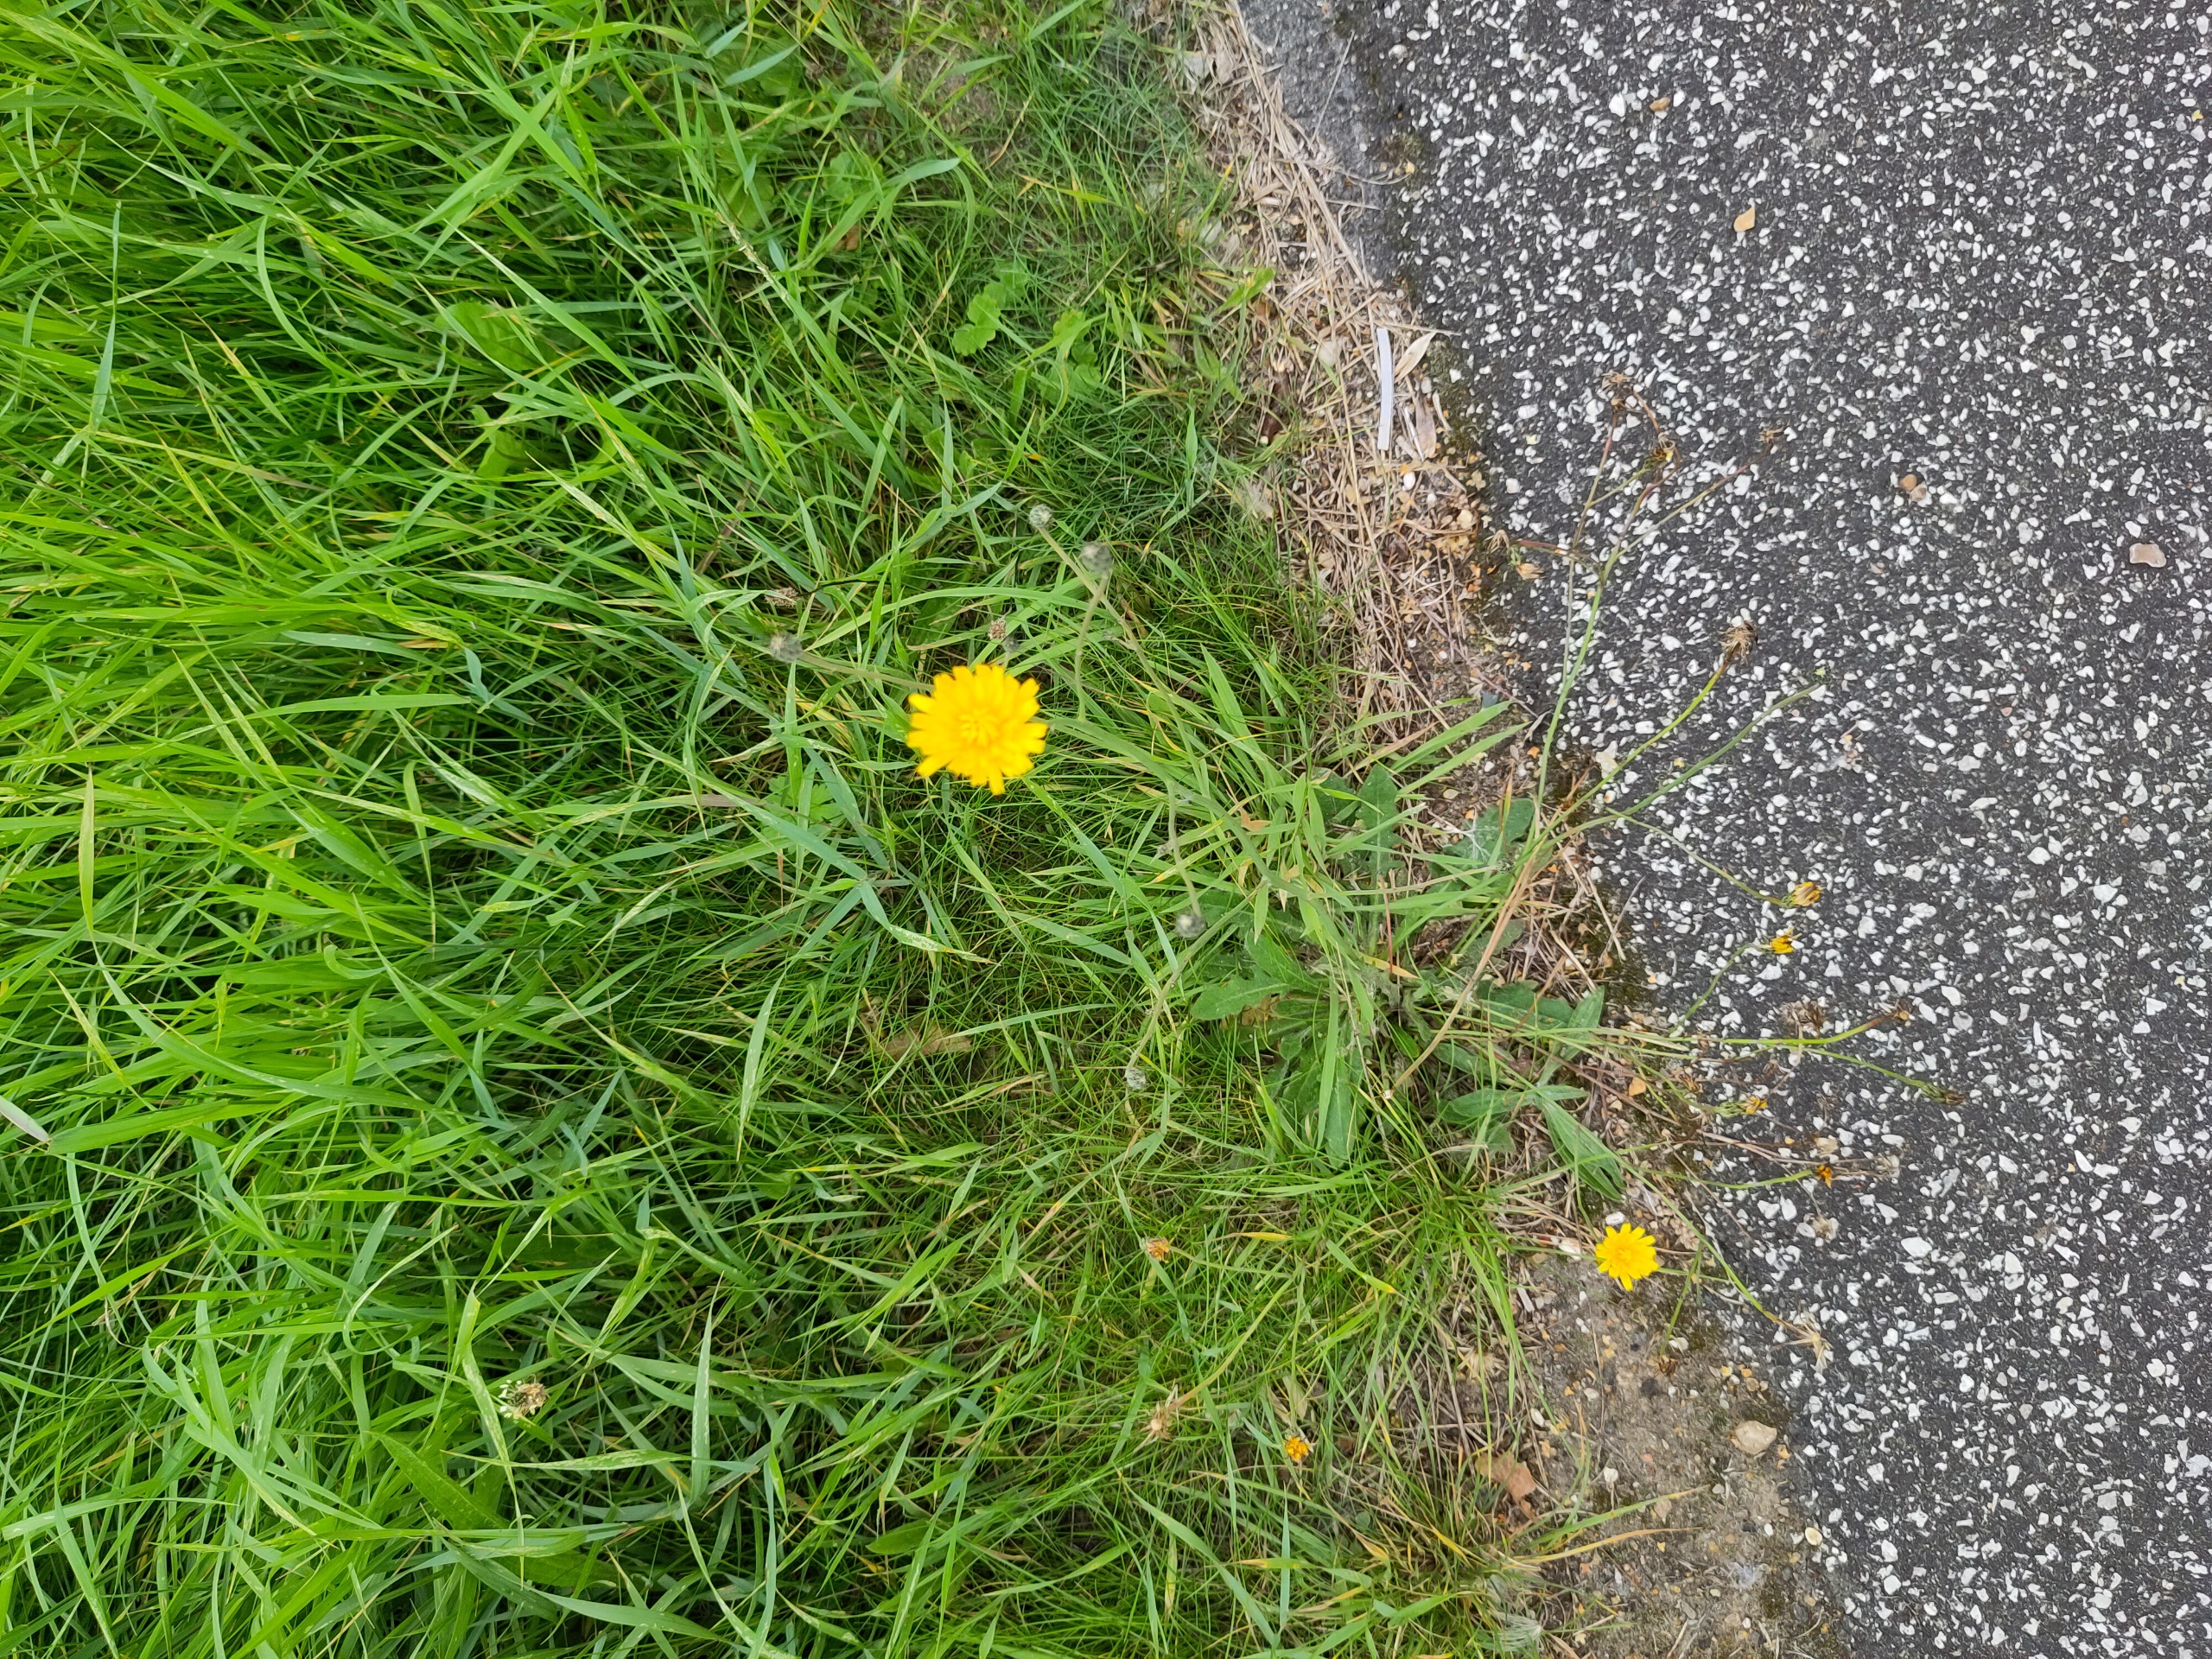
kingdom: Plantae
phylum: Tracheophyta
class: Magnoliopsida
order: Asterales
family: Asteraceae
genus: Hypochaeris
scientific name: Hypochaeris radicata
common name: Almindelig kongepen
